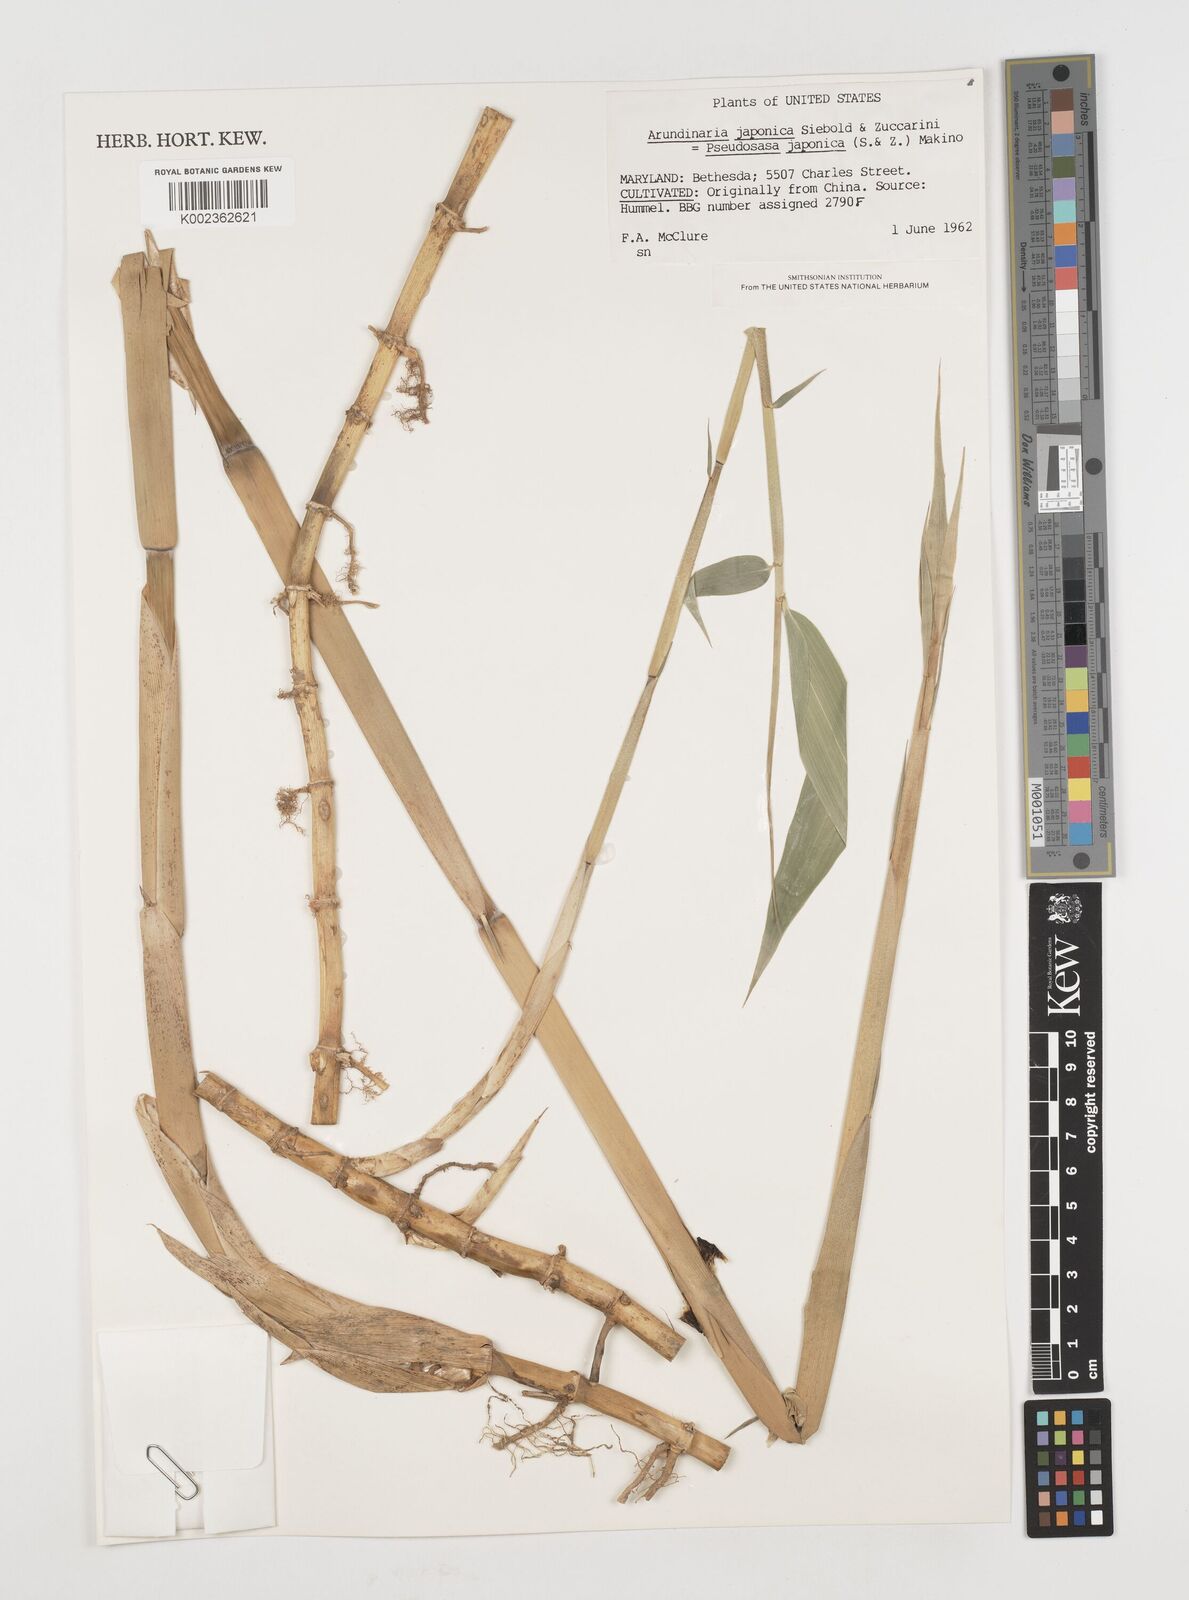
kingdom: Plantae
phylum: Tracheophyta
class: Liliopsida
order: Poales
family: Poaceae
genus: Pseudosasa
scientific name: Pseudosasa japonica
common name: Arrow bamboo
